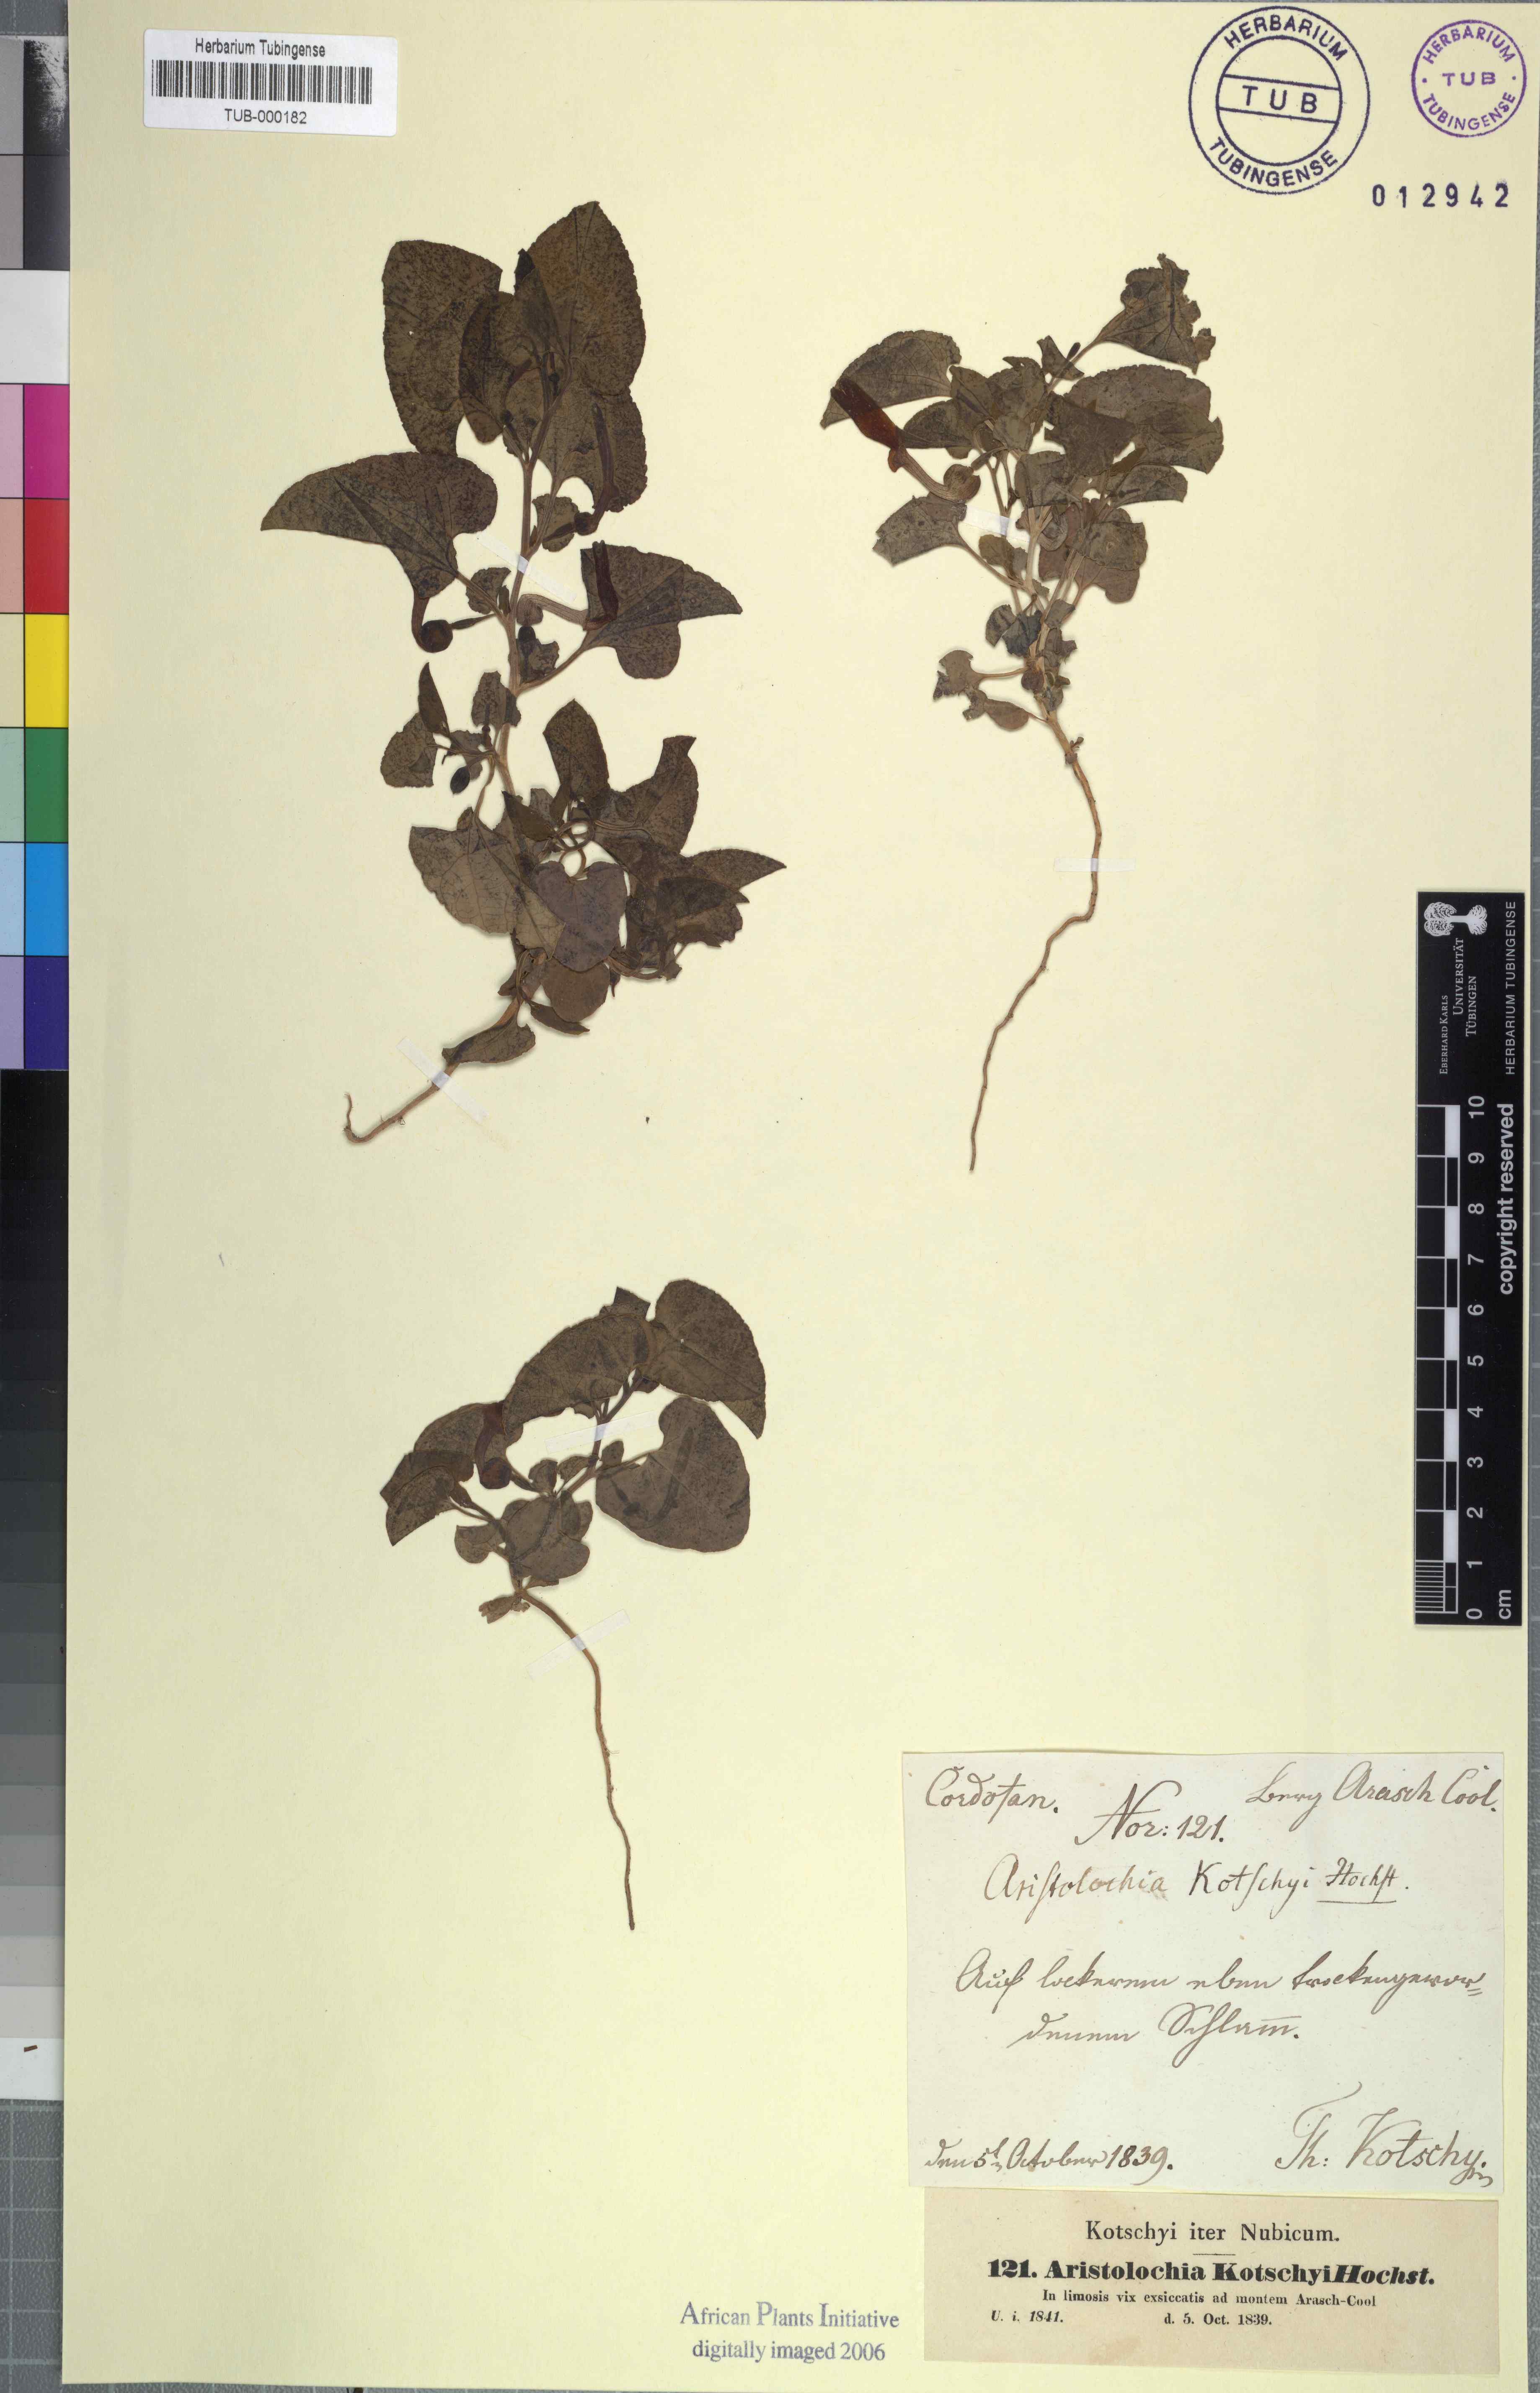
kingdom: Plantae
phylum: Tracheophyta
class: Magnoliopsida
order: Piperales
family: Aristolochiaceae
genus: Aristolochia
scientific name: Aristolochia bracteolata
